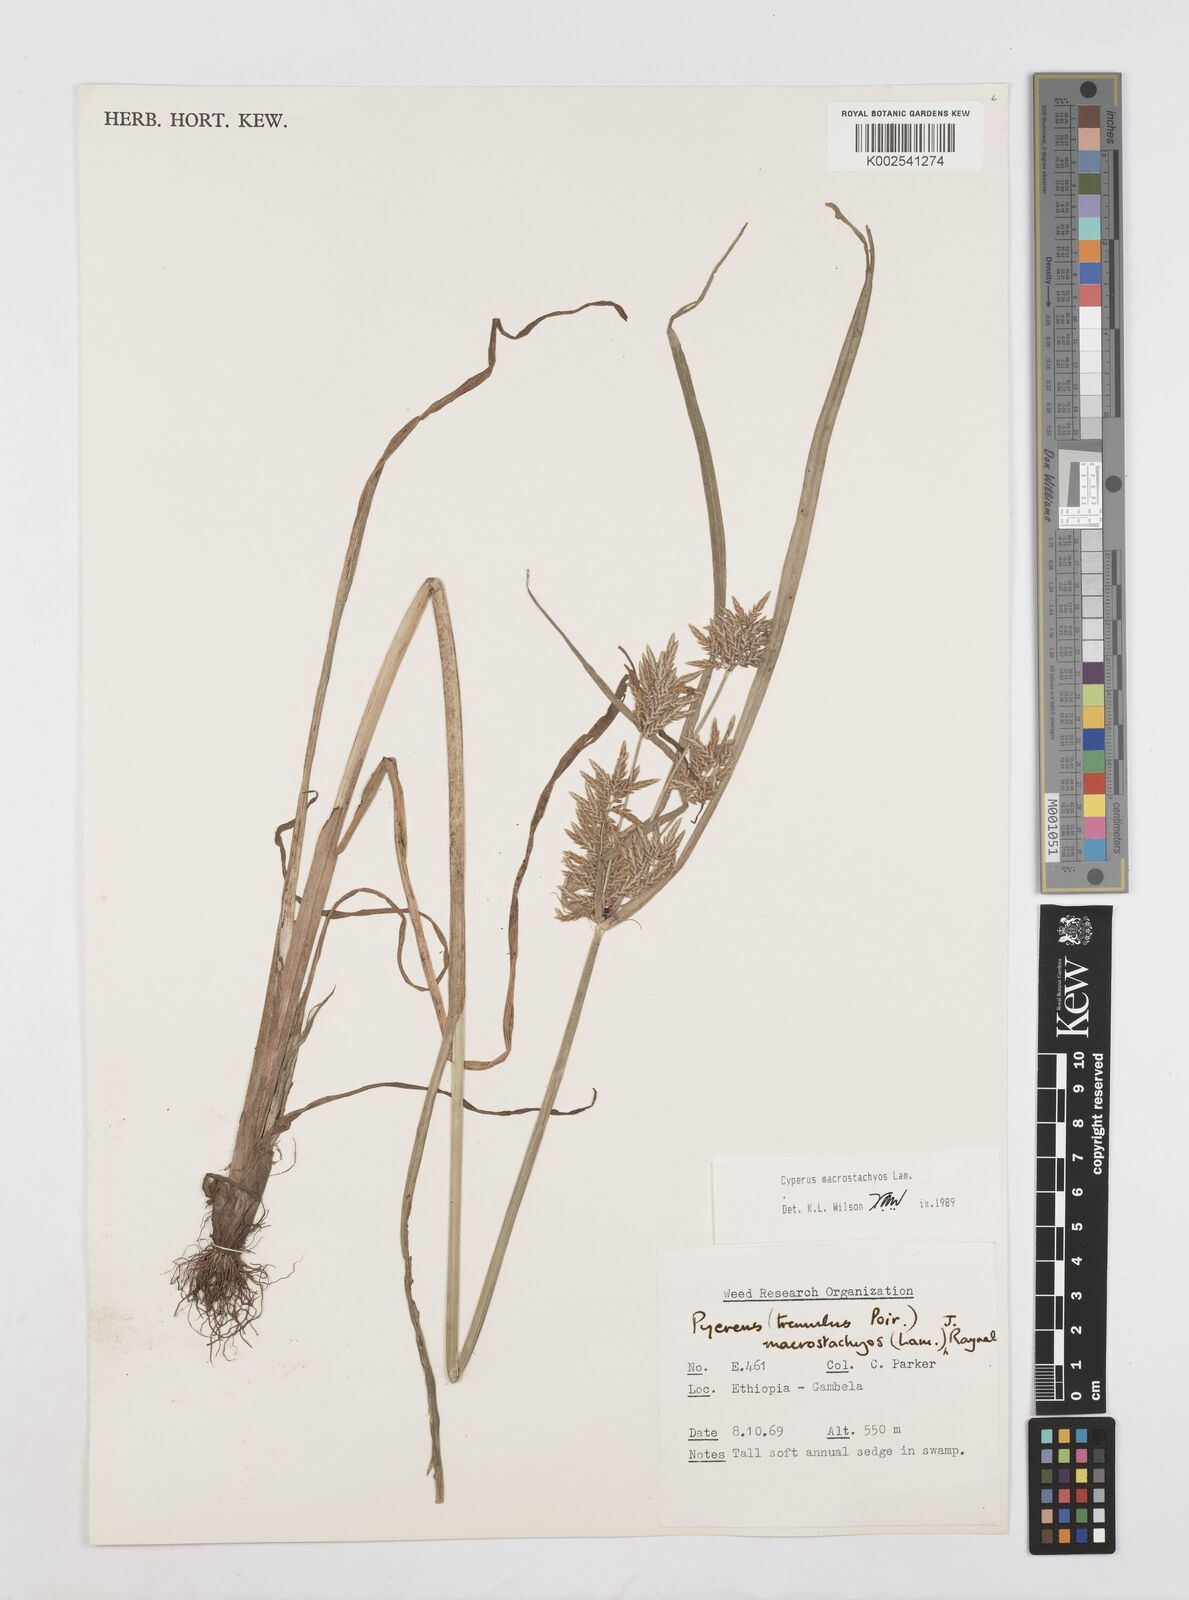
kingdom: Plantae
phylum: Tracheophyta
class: Liliopsida
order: Poales
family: Cyperaceae
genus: Cyperus
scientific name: Cyperus macrostachyos
